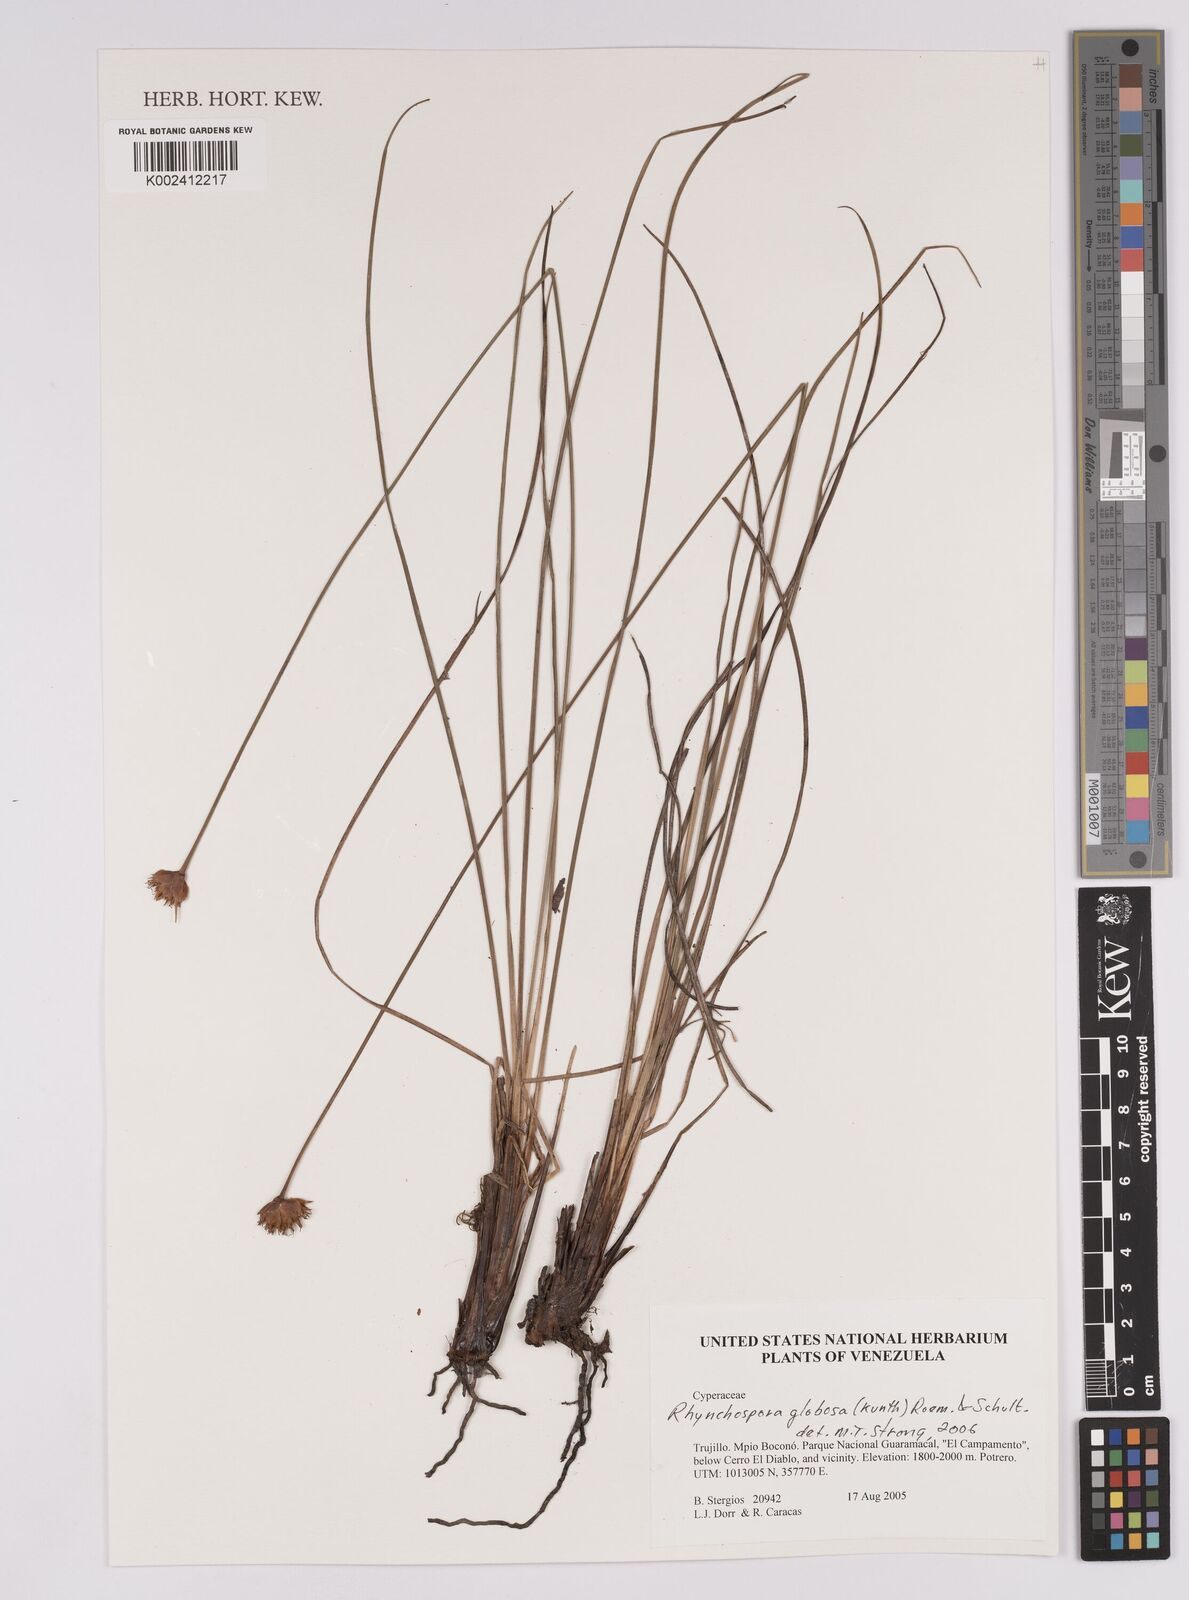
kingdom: Plantae
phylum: Tracheophyta
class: Liliopsida
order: Poales
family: Cyperaceae
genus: Rhynchospora
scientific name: Rhynchospora barbata
